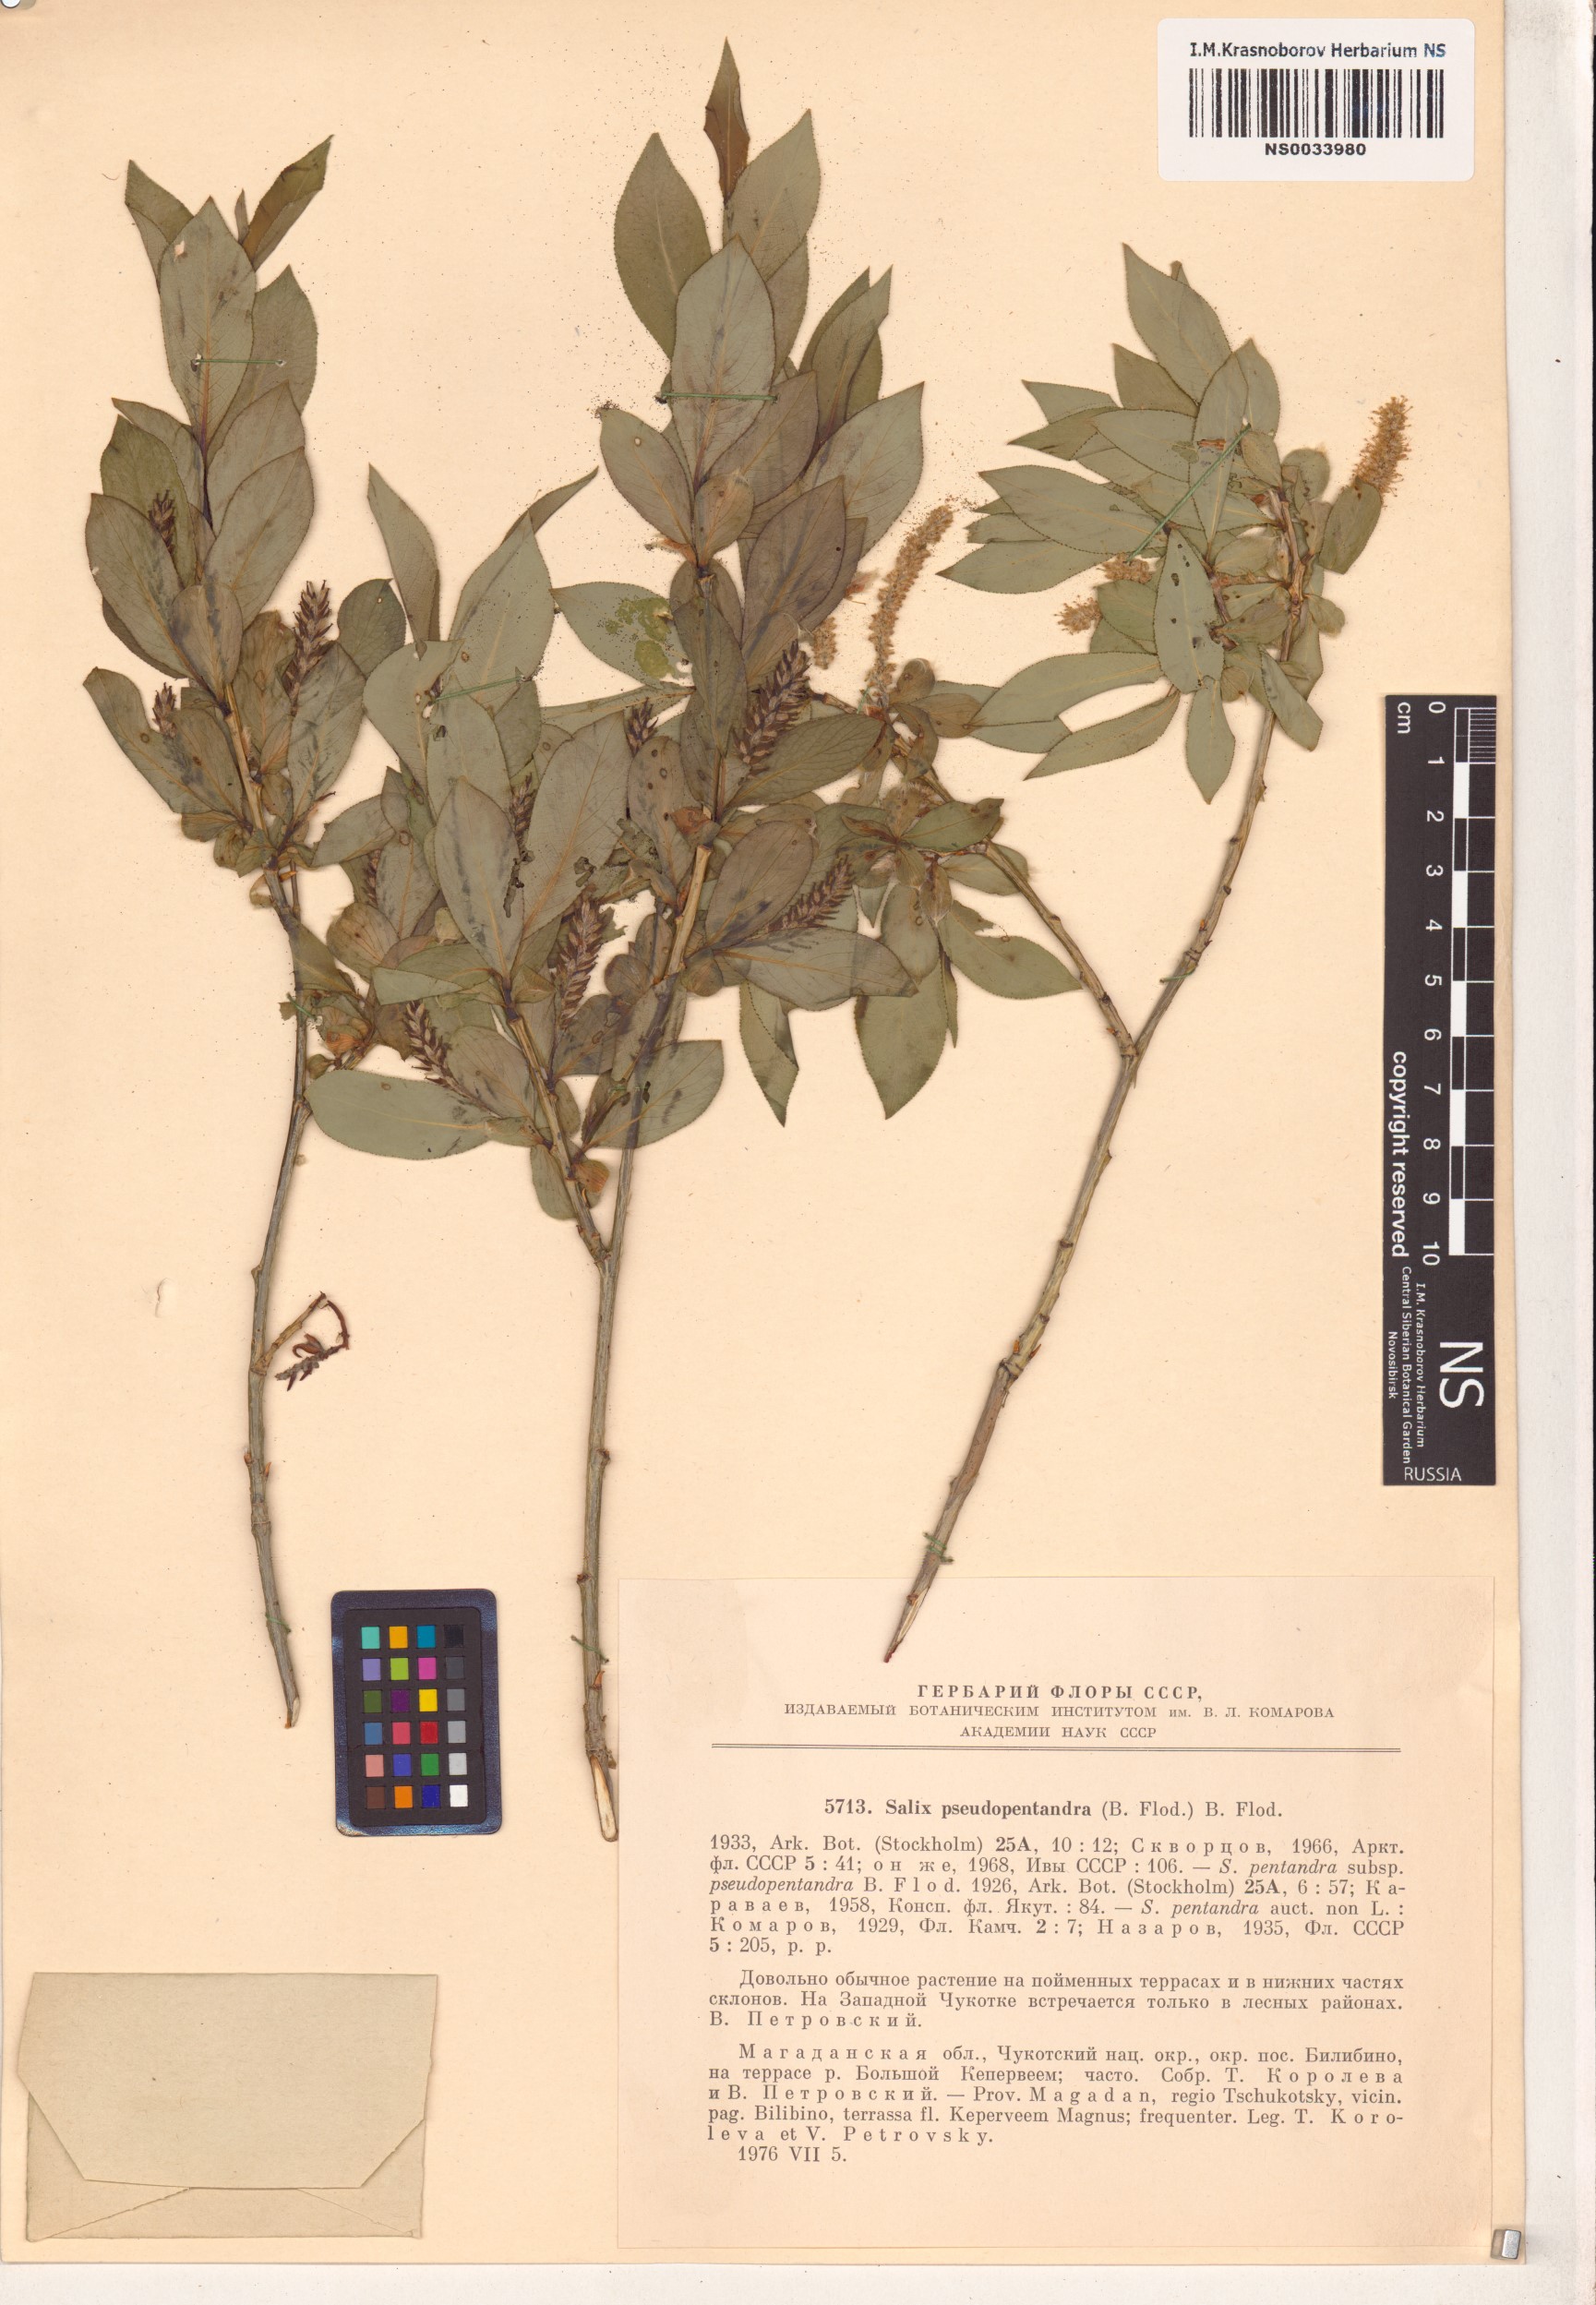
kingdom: Plantae
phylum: Tracheophyta
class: Magnoliopsida
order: Malpighiales
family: Salicaceae
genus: Salix
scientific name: Salix pseudopentandra
